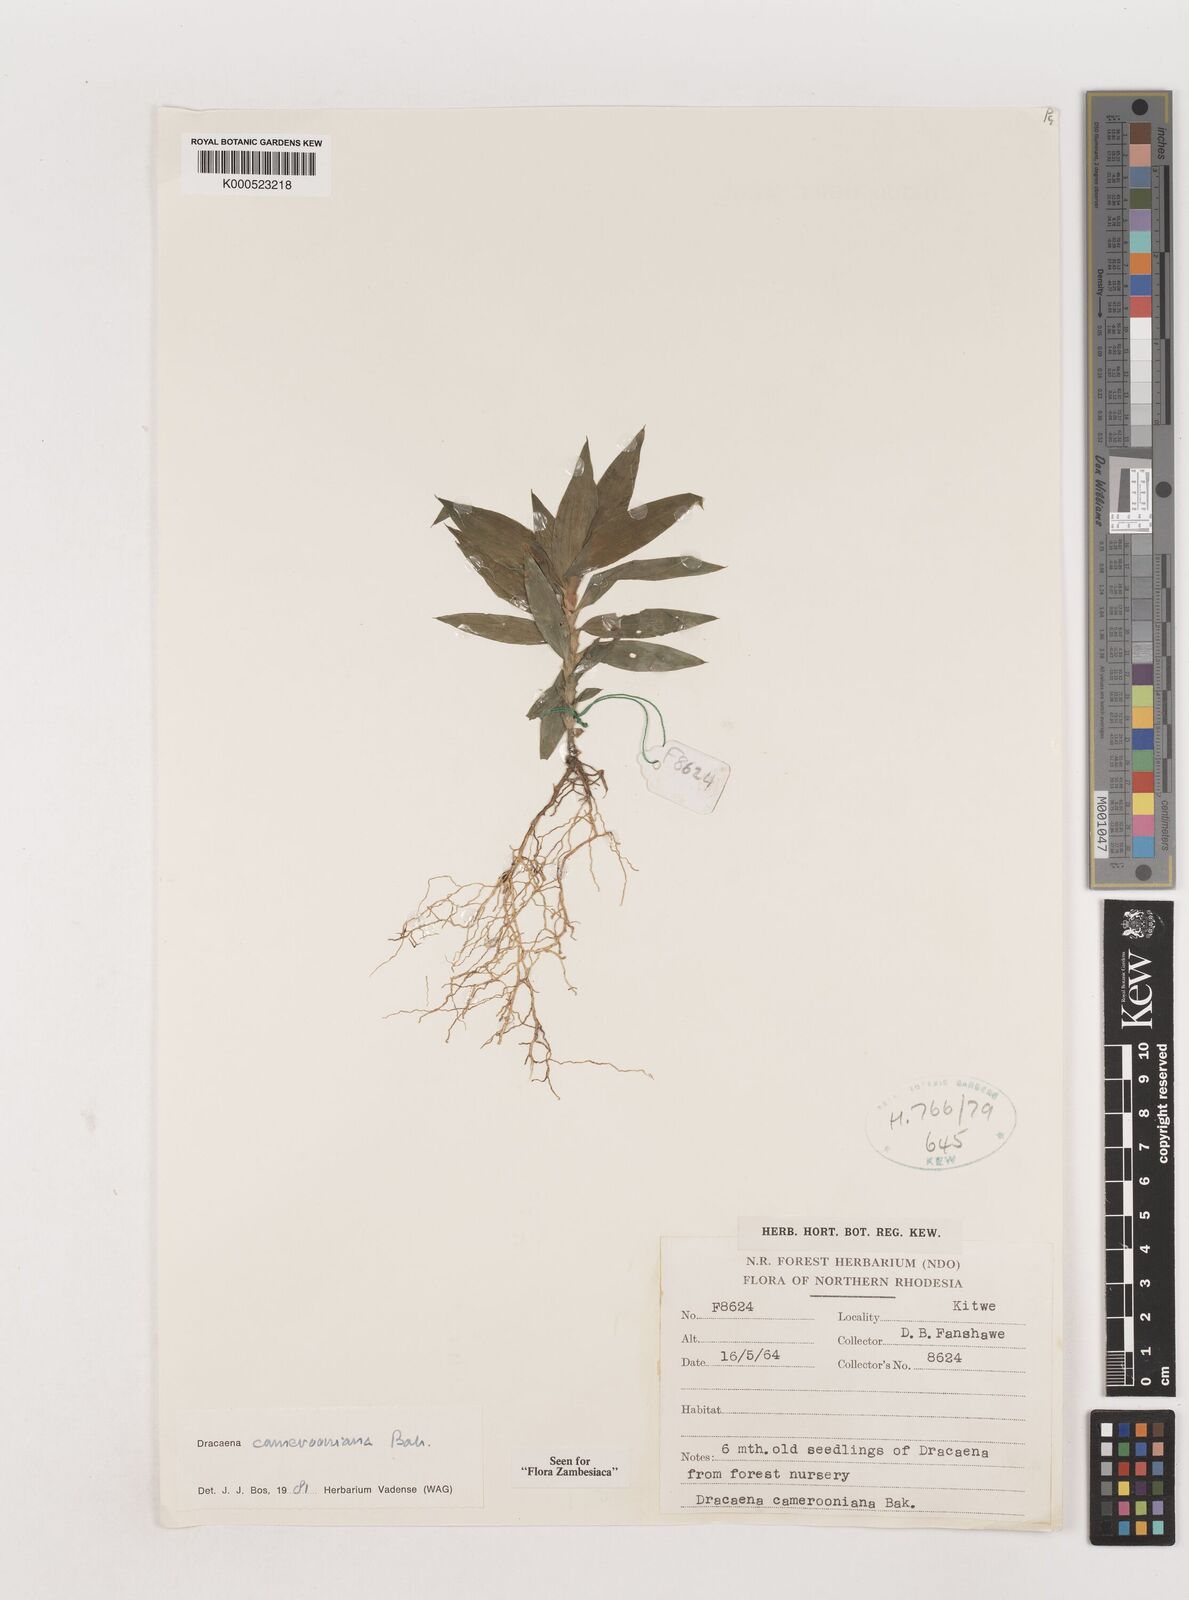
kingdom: Plantae
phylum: Tracheophyta
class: Liliopsida
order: Asparagales
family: Asparagaceae
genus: Dracaena
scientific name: Dracaena camerooniana
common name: Dragon tree
